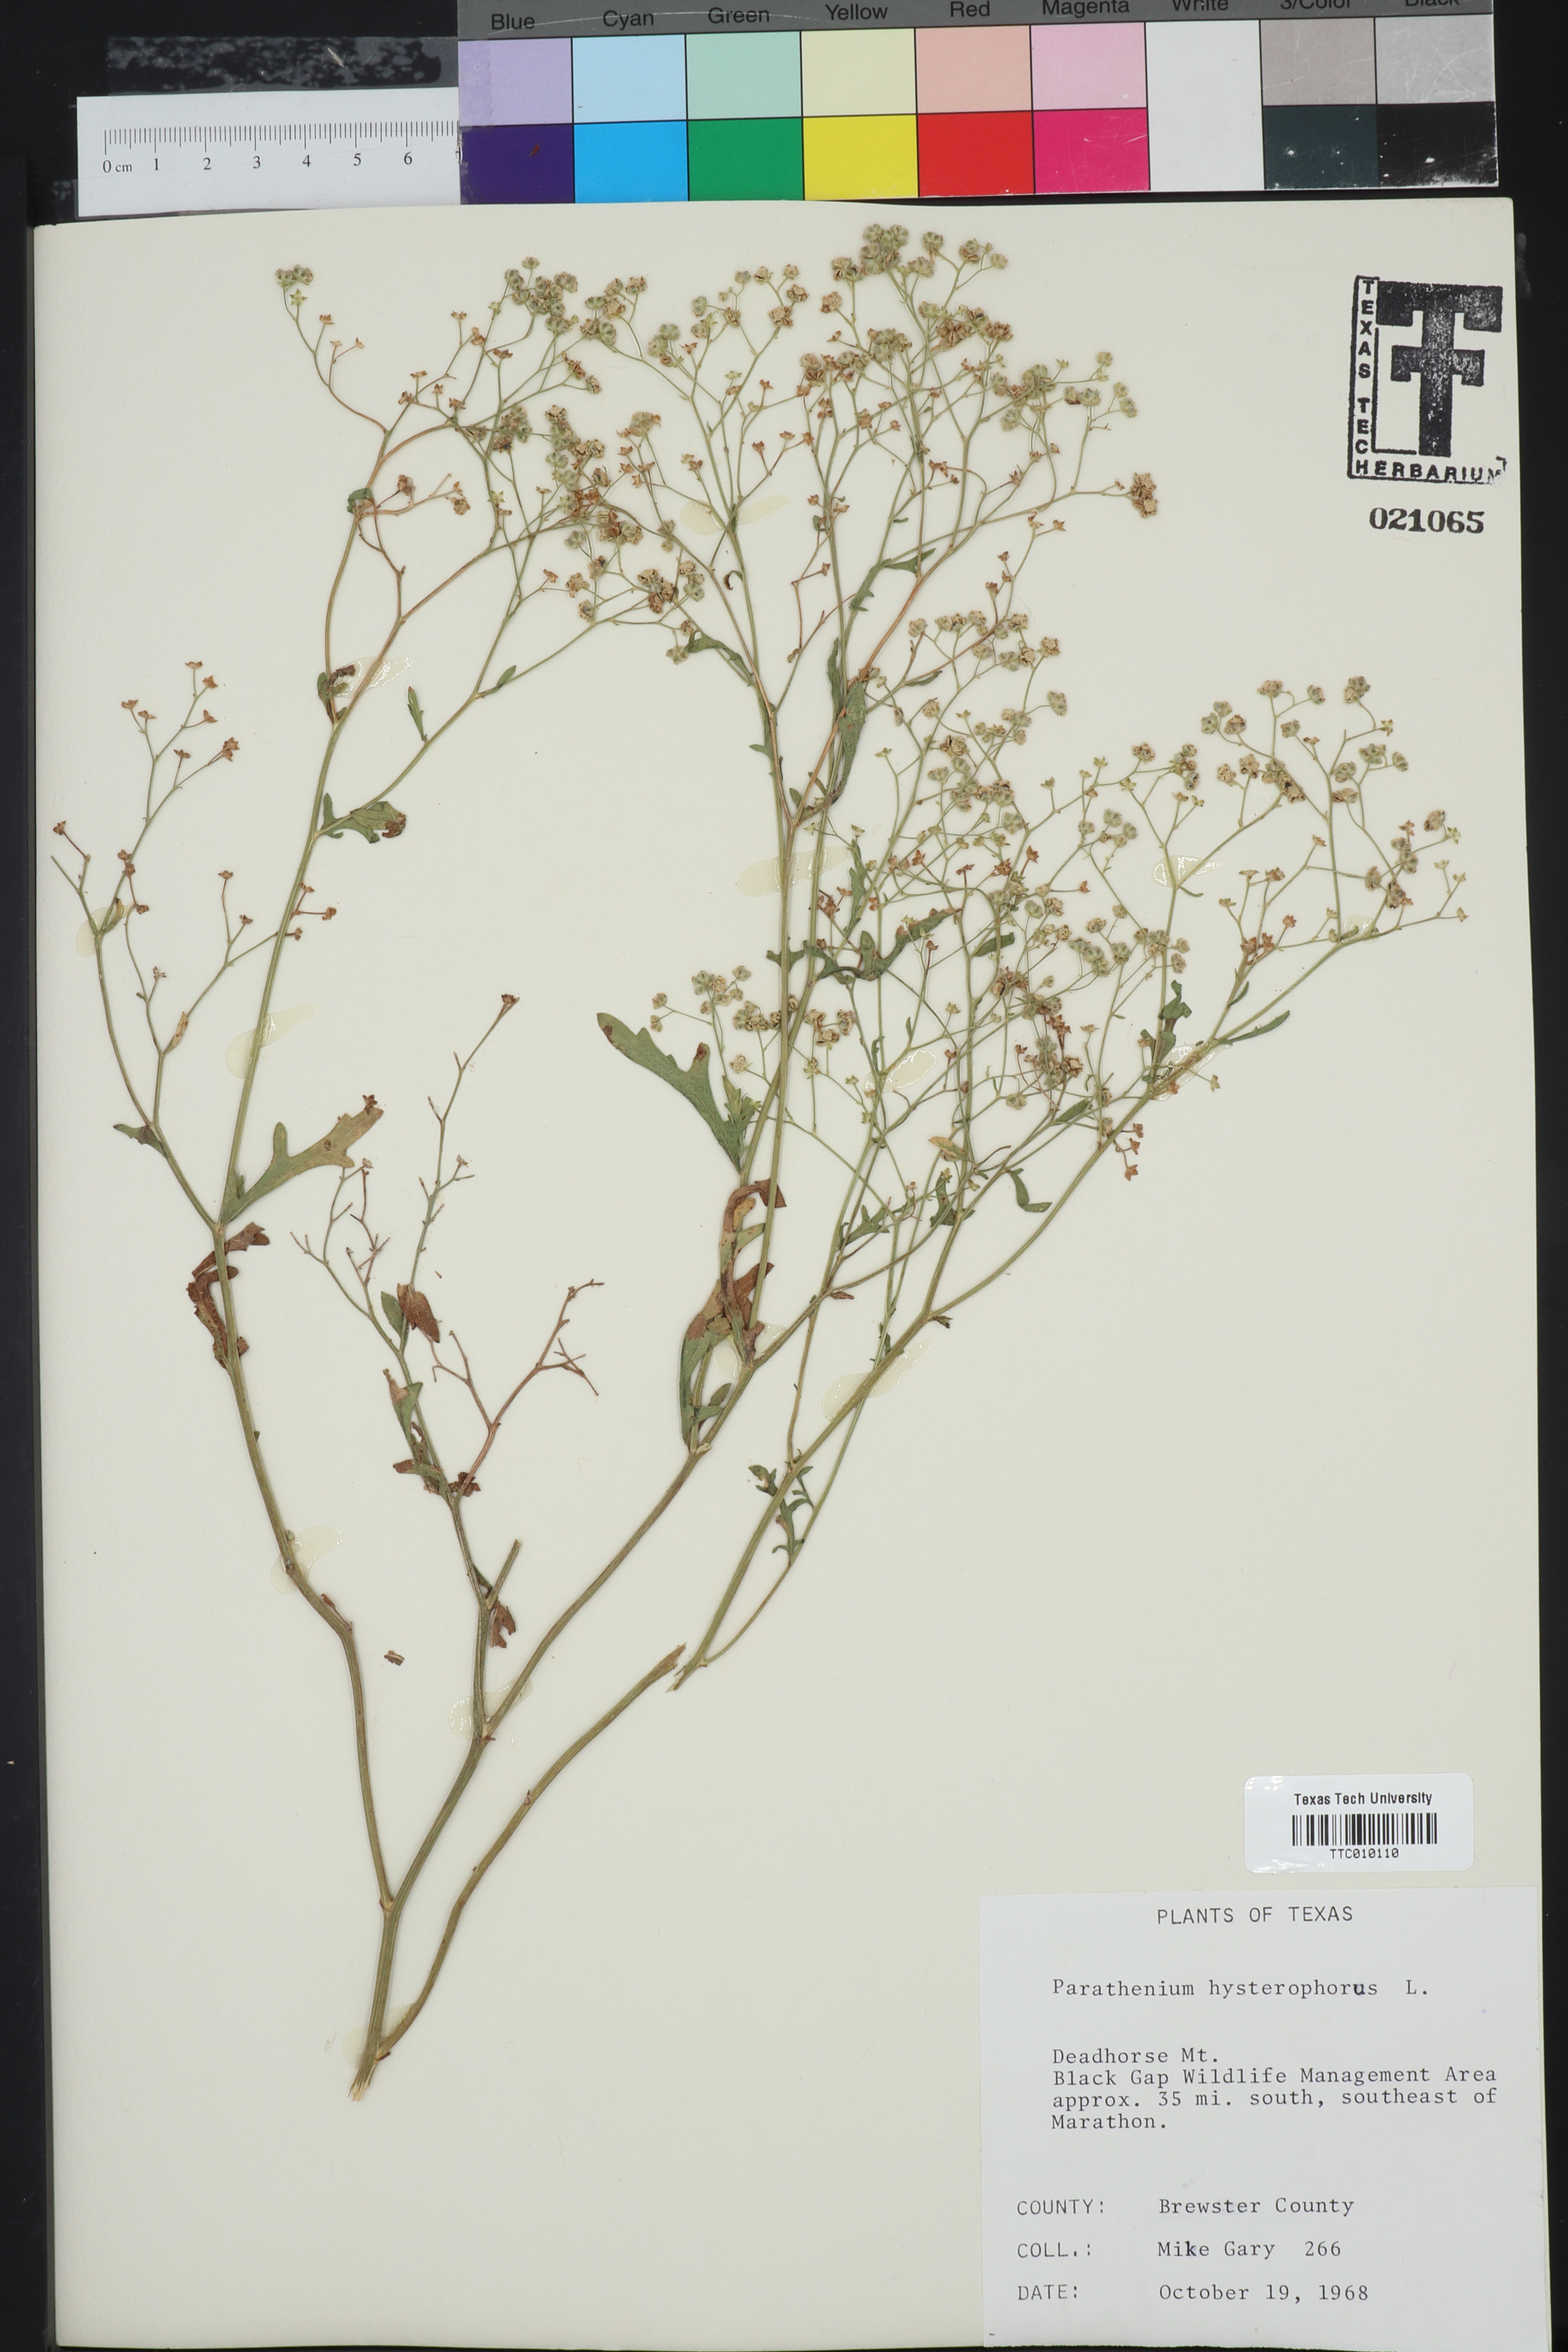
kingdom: Plantae
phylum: Tracheophyta
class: Magnoliopsida
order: Asterales
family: Asteraceae
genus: Parthenium
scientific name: Parthenium hysterophorus
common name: Santa maria feverfew
